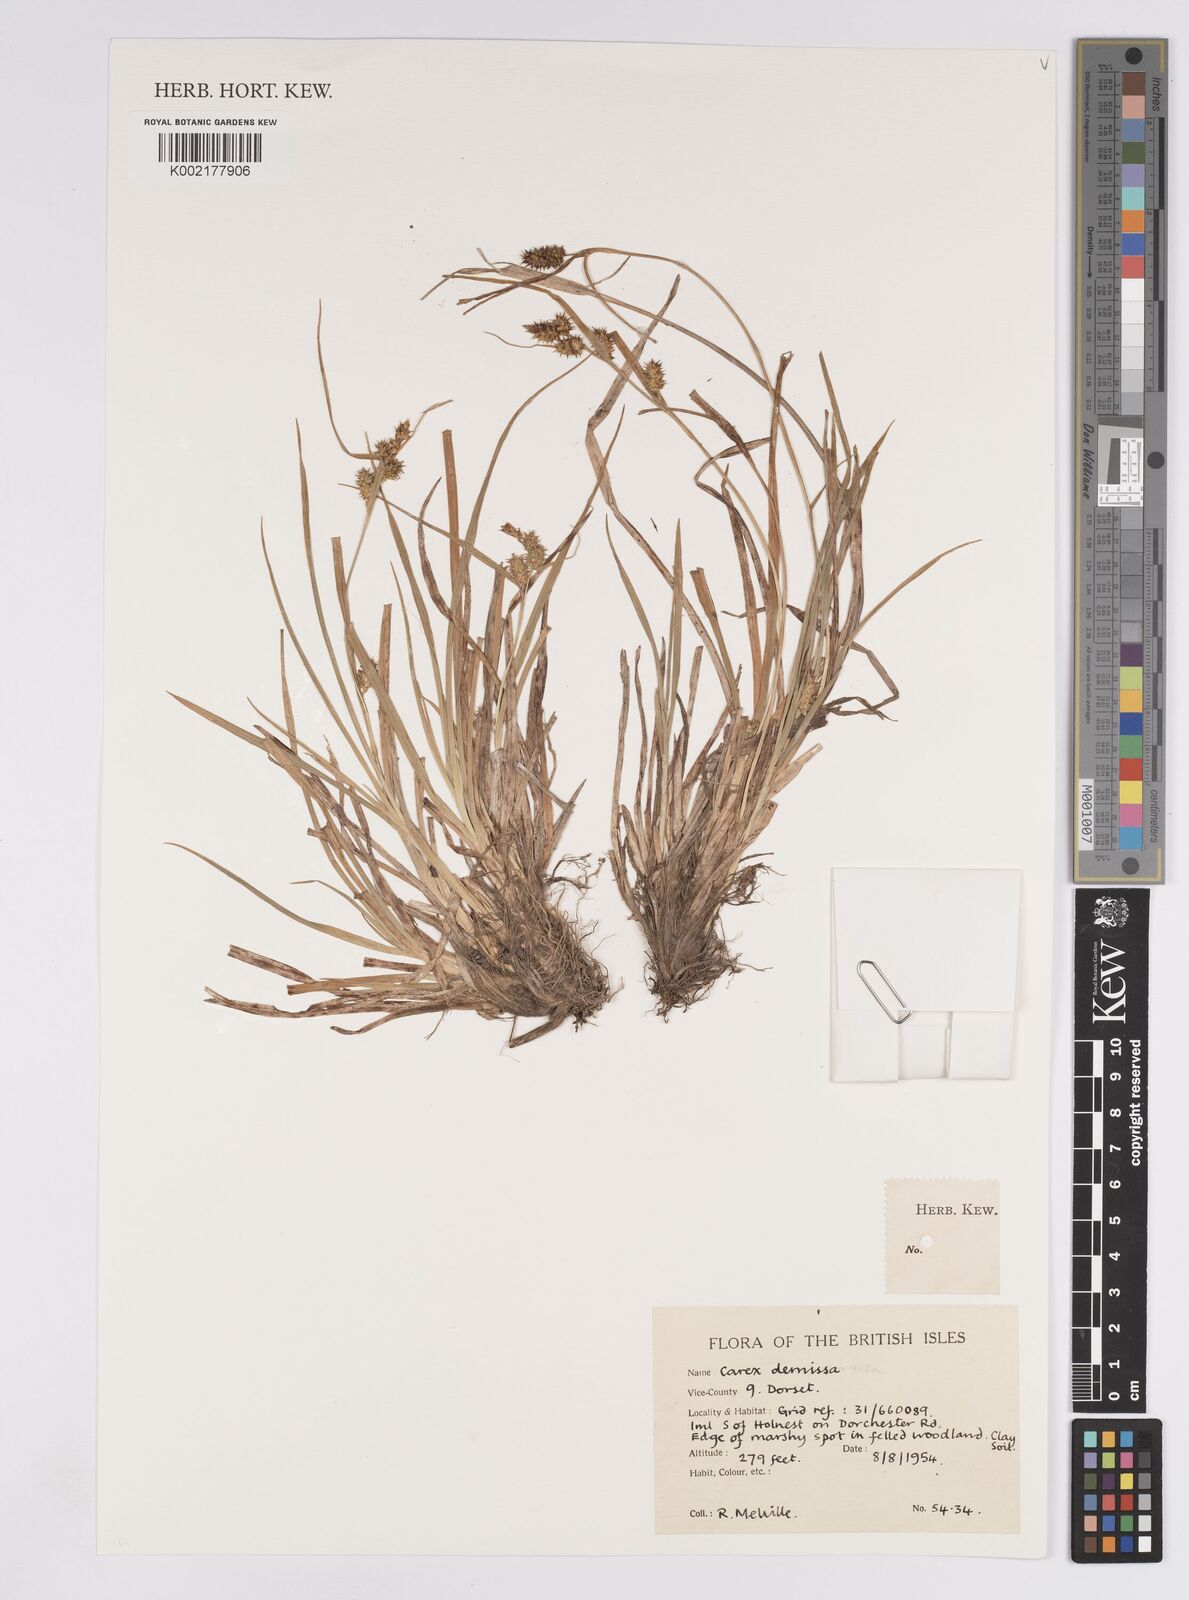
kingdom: Plantae
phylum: Tracheophyta
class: Liliopsida
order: Poales
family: Cyperaceae
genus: Carex
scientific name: Carex demissa
